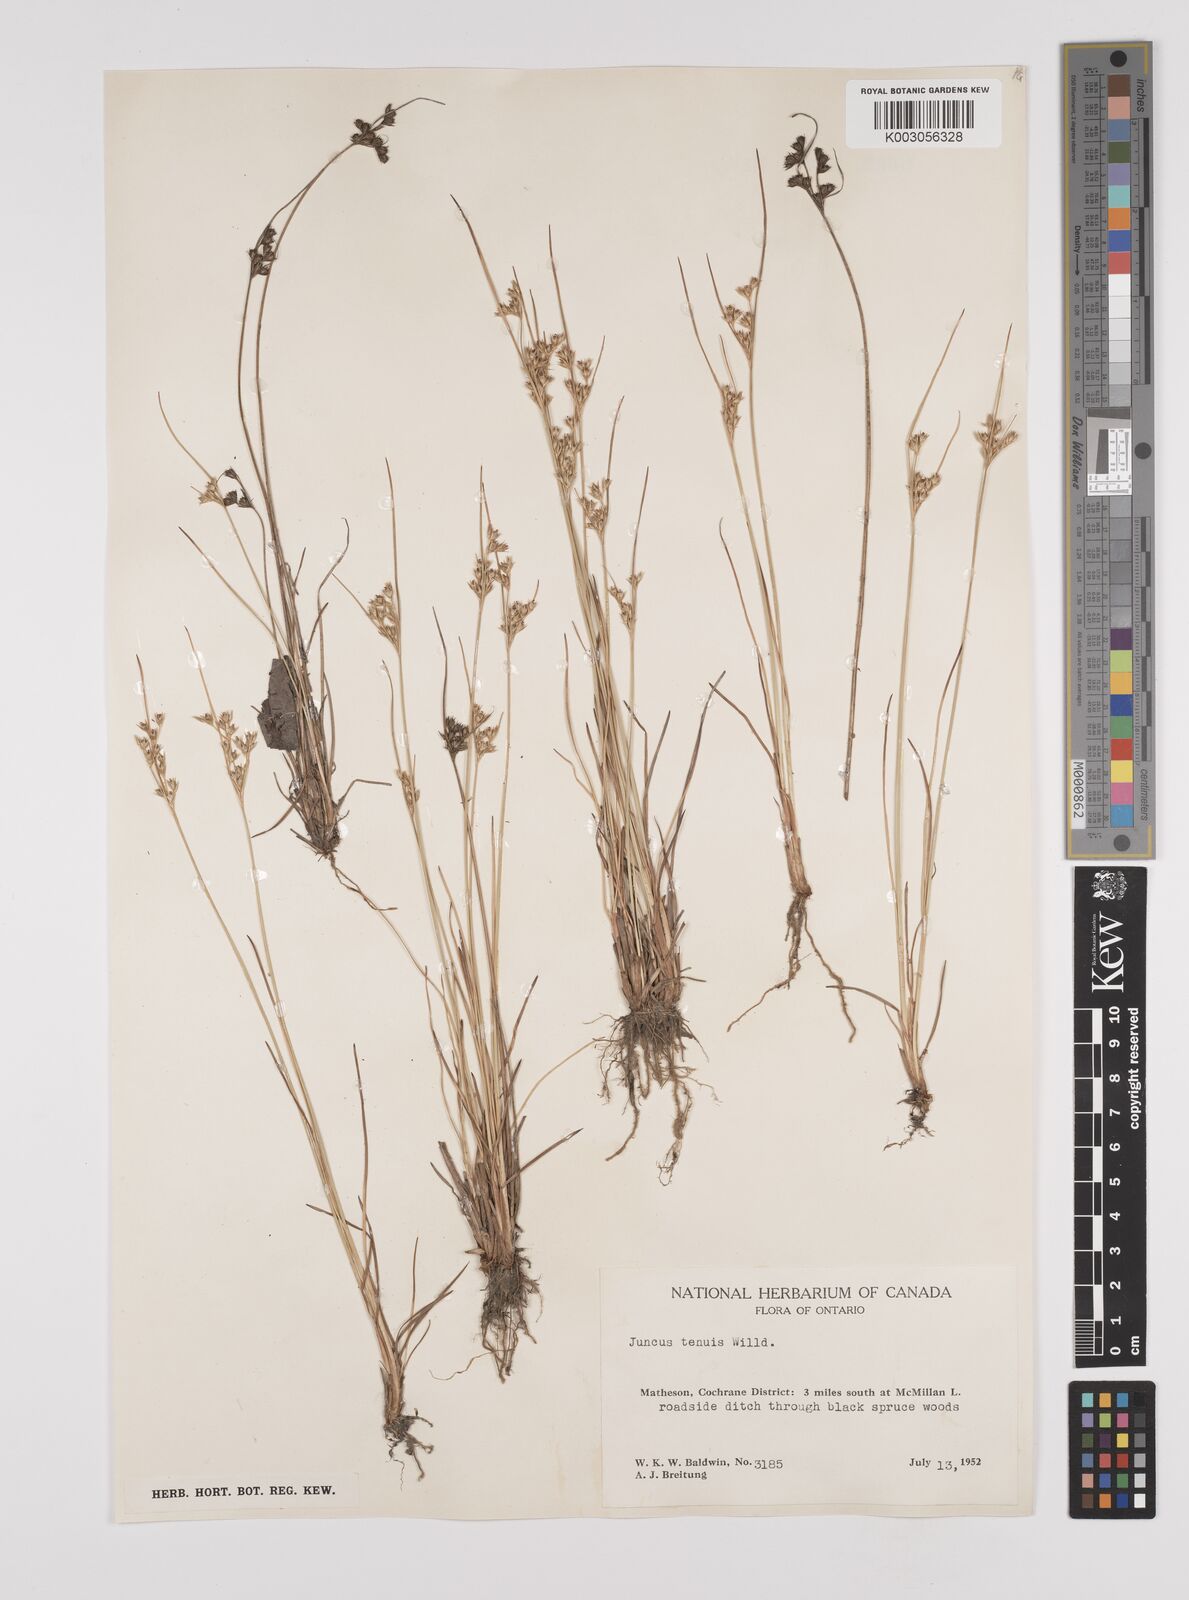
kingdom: Plantae
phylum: Tracheophyta
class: Liliopsida
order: Poales
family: Juncaceae
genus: Juncus
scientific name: Juncus tenuis
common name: Slender rush
